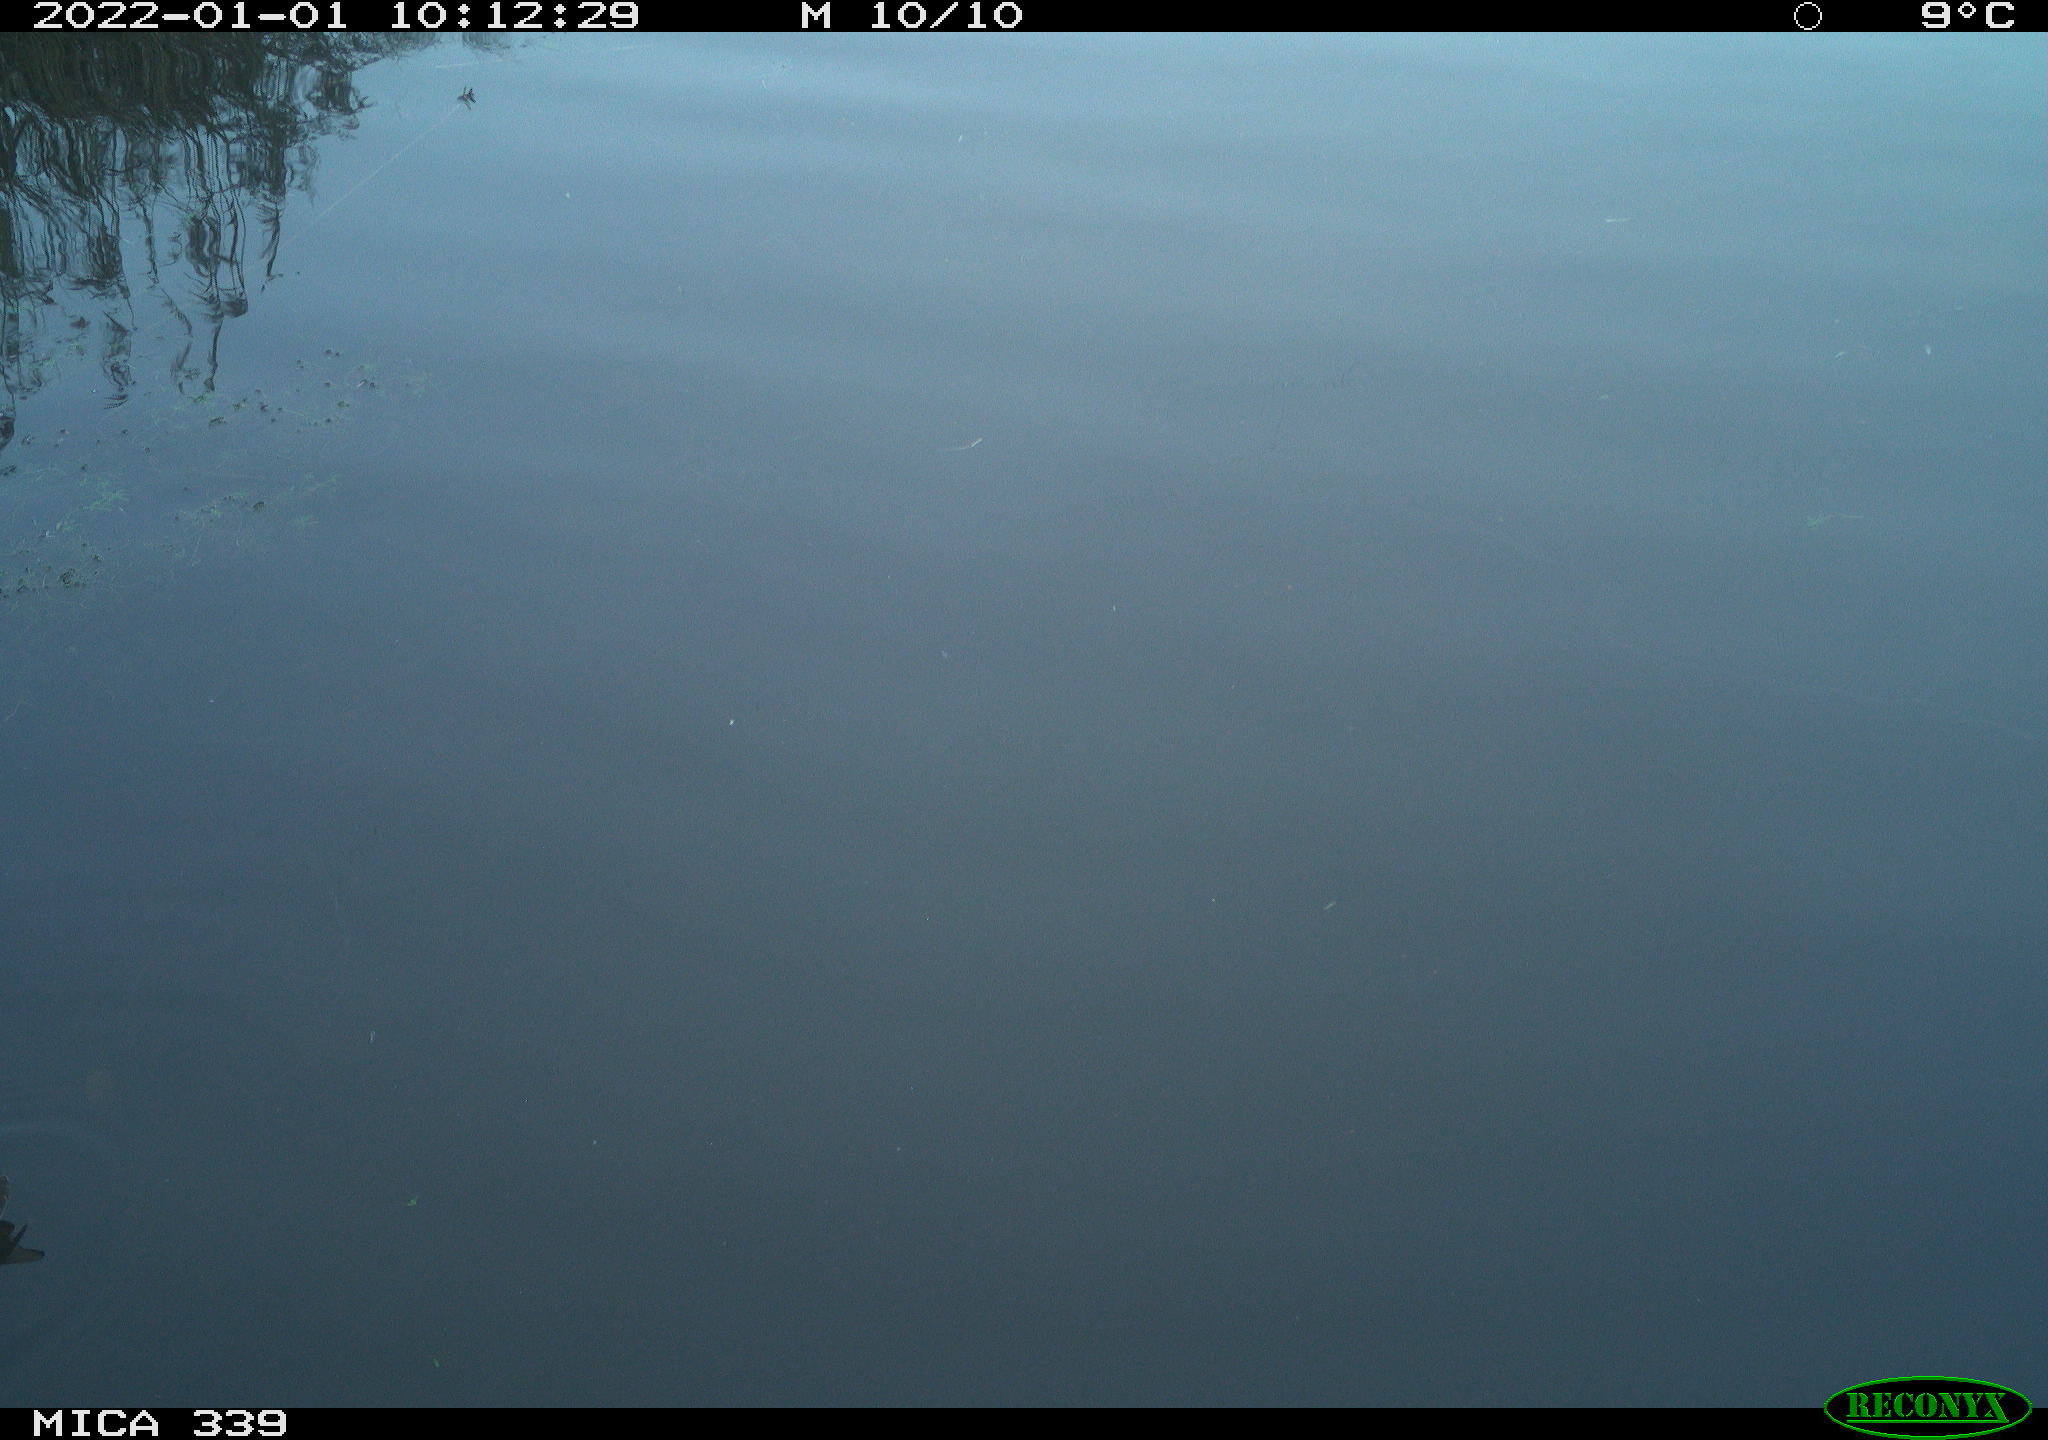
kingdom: Animalia
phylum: Chordata
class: Aves
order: Gruiformes
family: Rallidae
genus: Gallinula
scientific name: Gallinula chloropus
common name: Common moorhen
